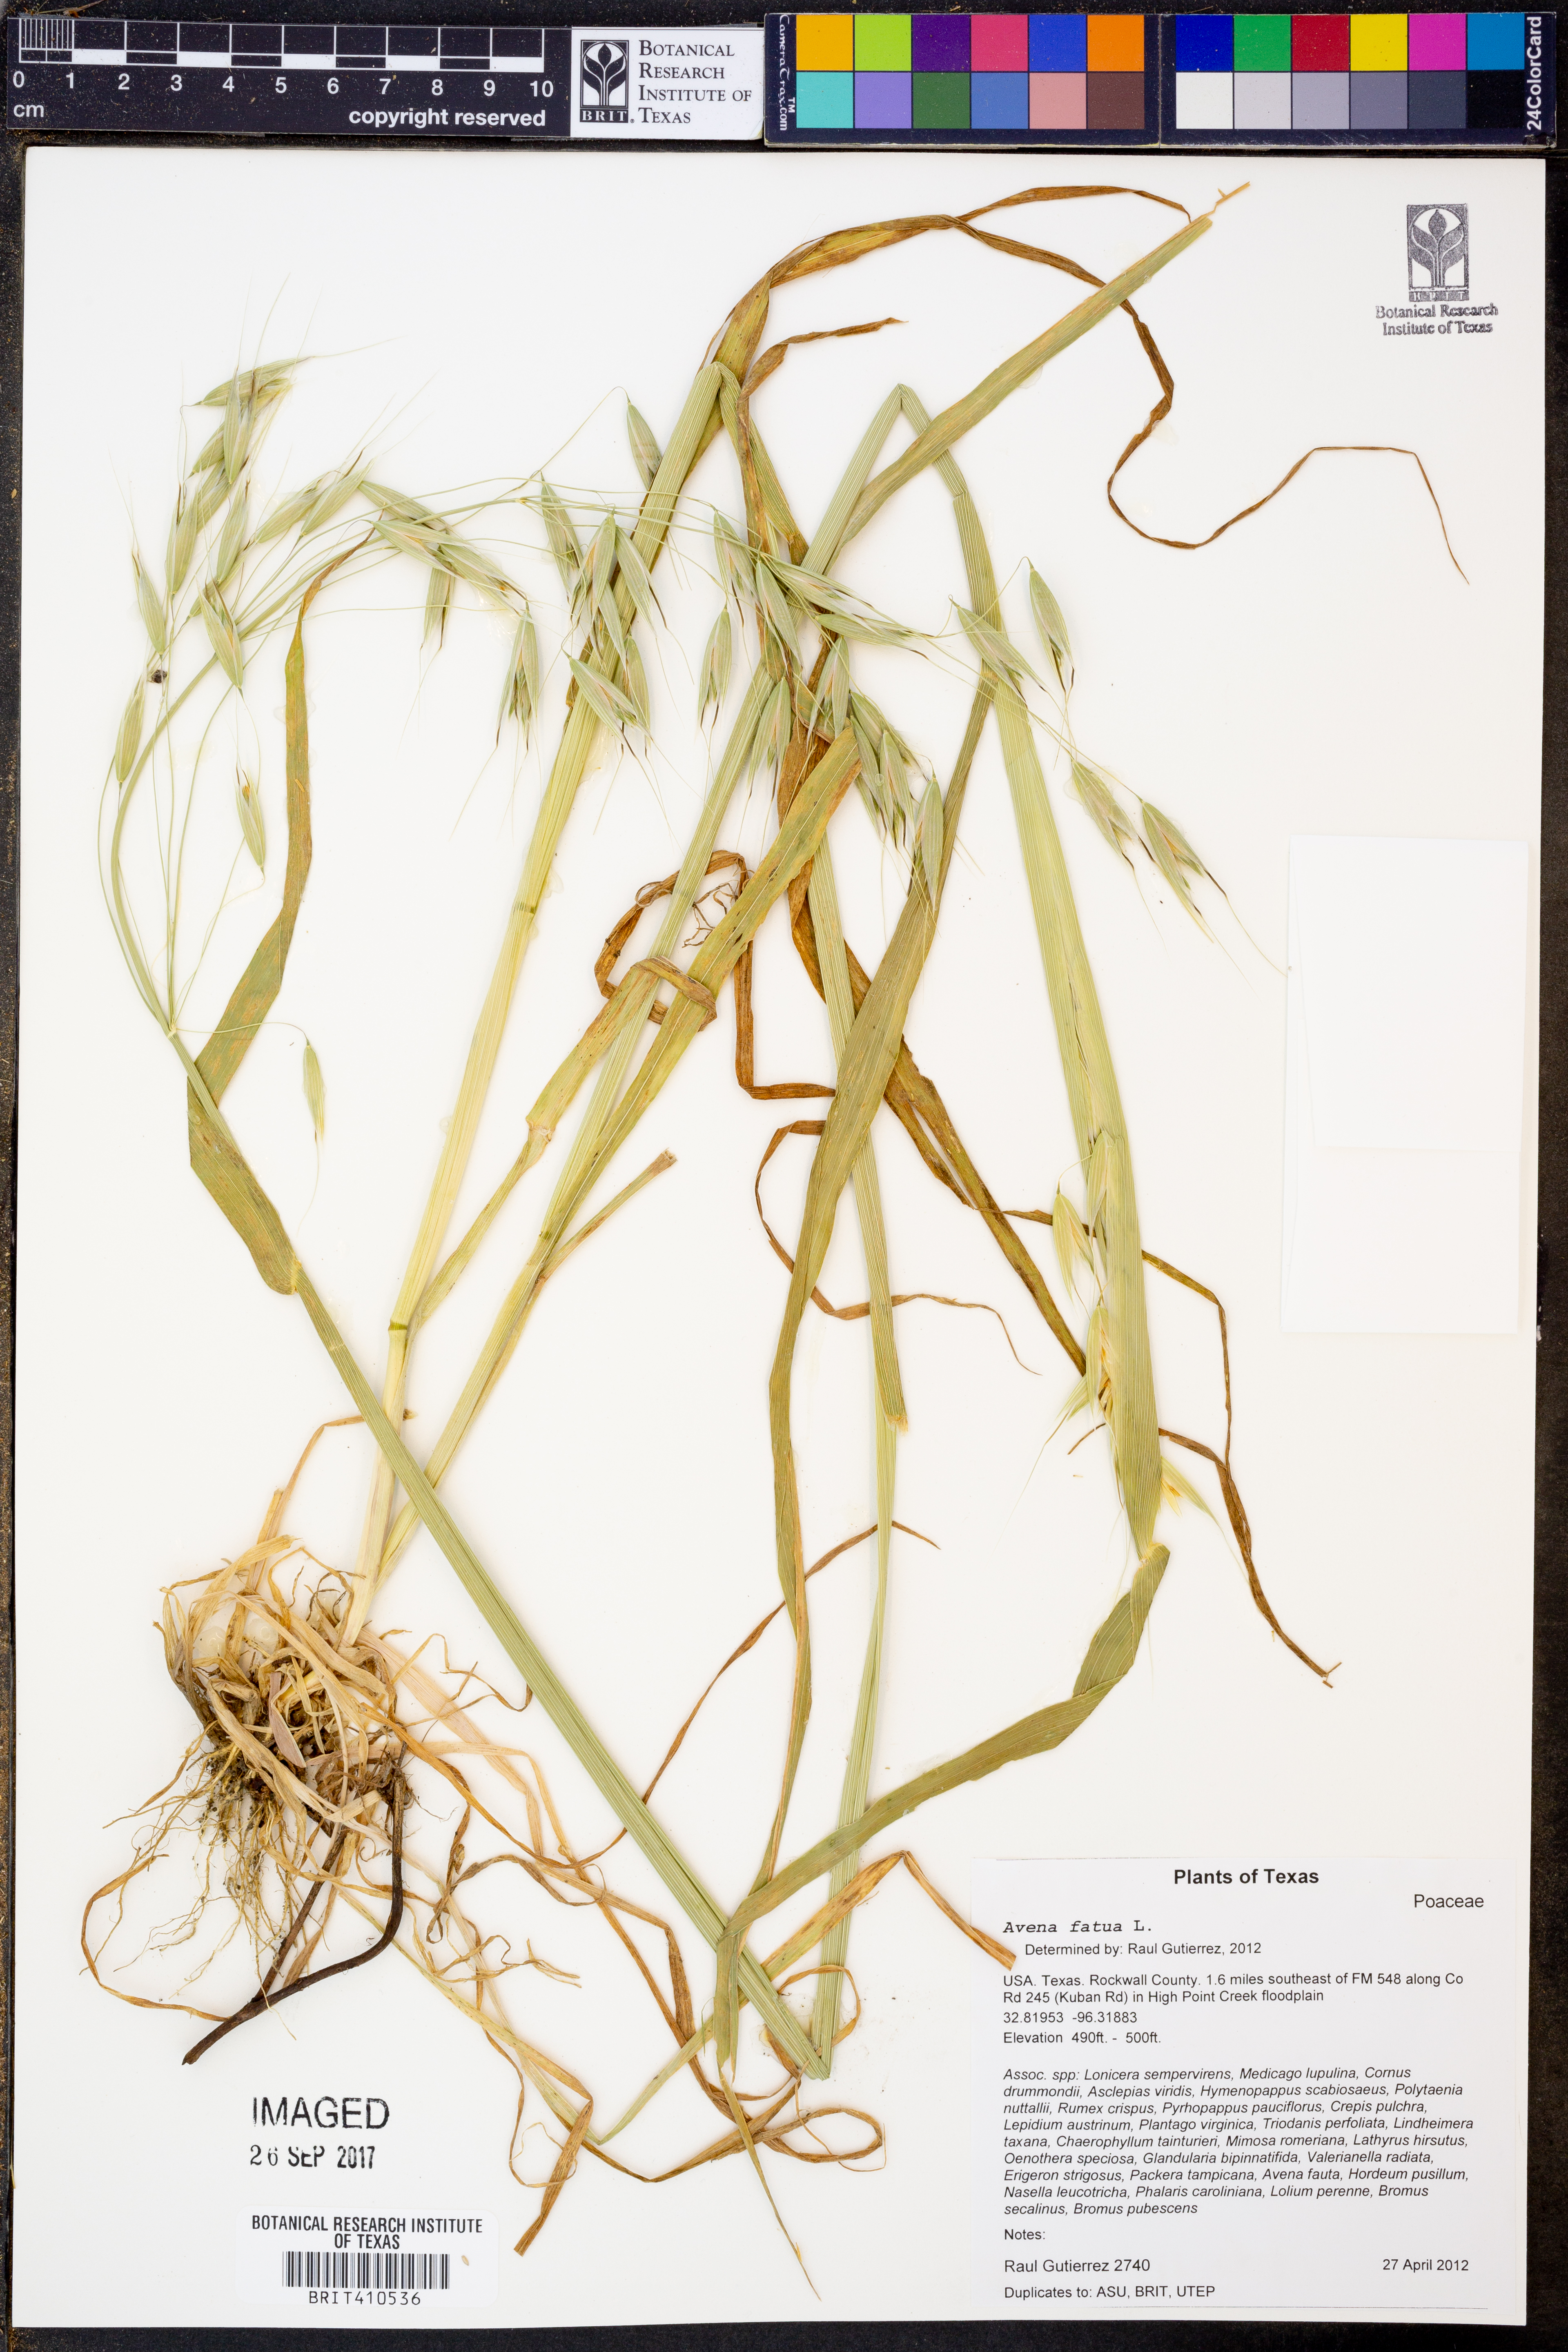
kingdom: Plantae
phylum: Tracheophyta
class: Liliopsida
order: Poales
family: Poaceae
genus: Avena
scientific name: Avena fatua
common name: Wild oat
